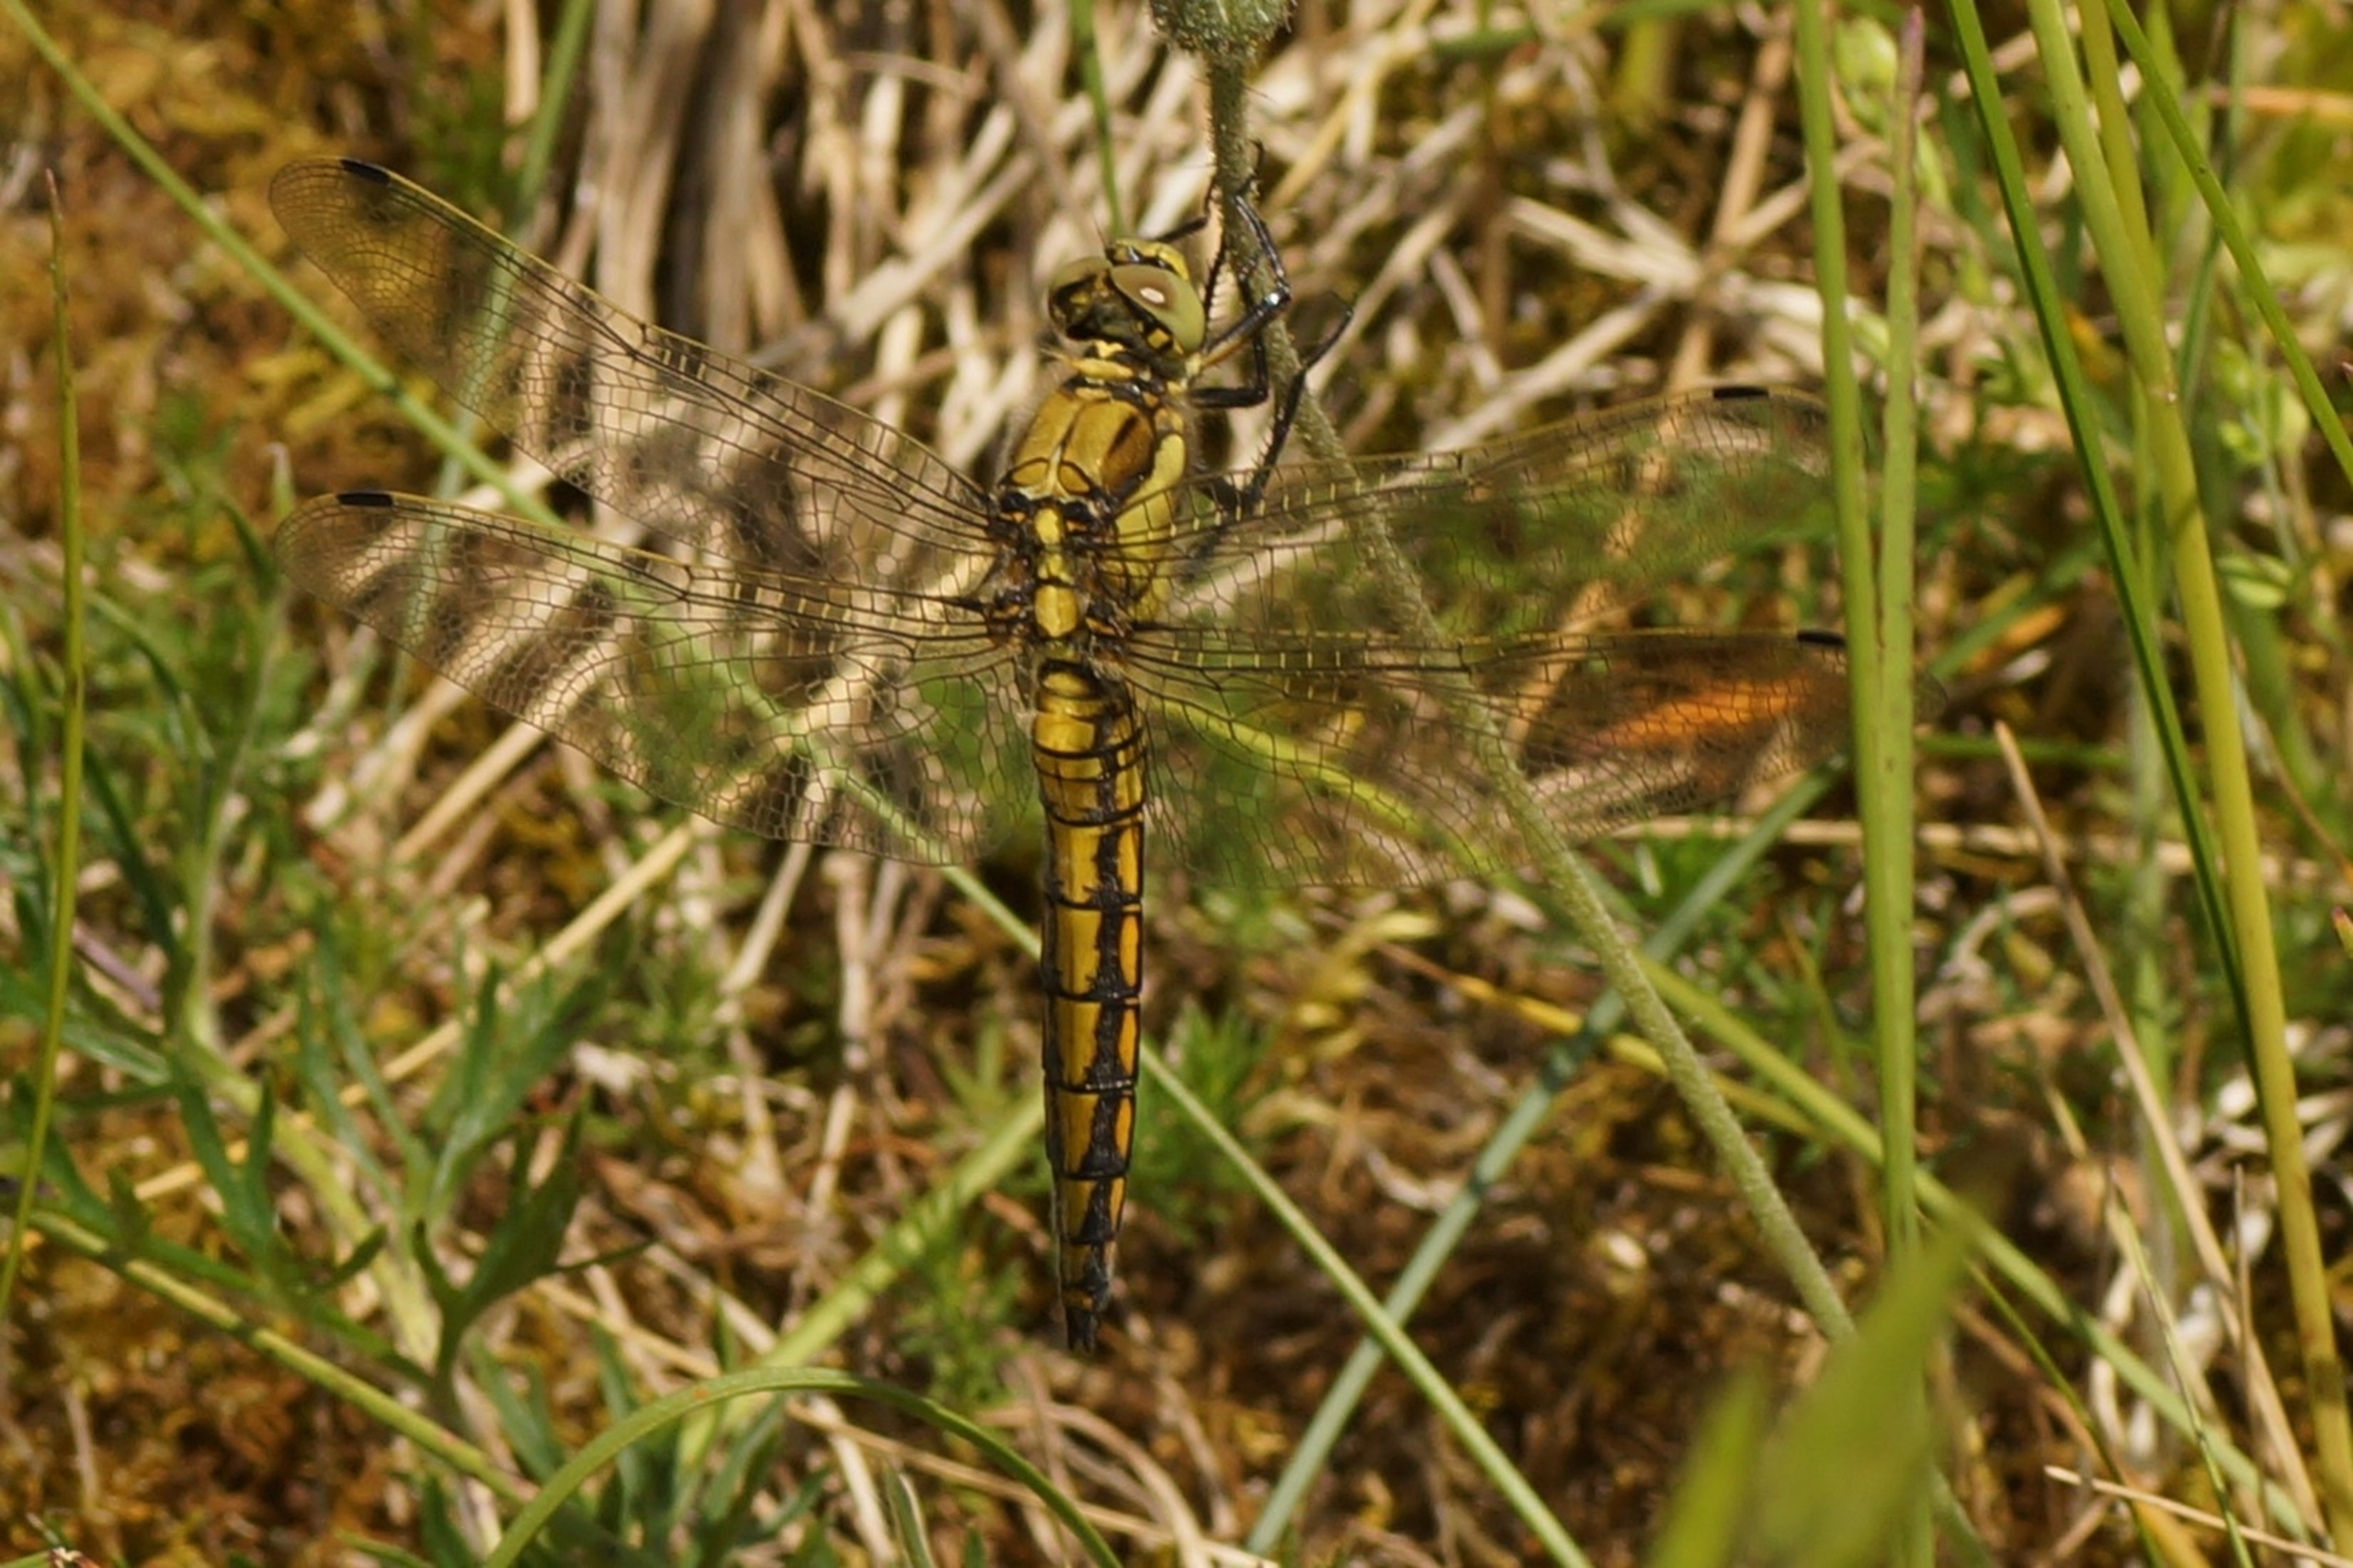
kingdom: Animalia
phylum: Arthropoda
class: Insecta
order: Odonata
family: Libellulidae
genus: Orthetrum
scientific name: Orthetrum cancellatum
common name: Stor blåpil
